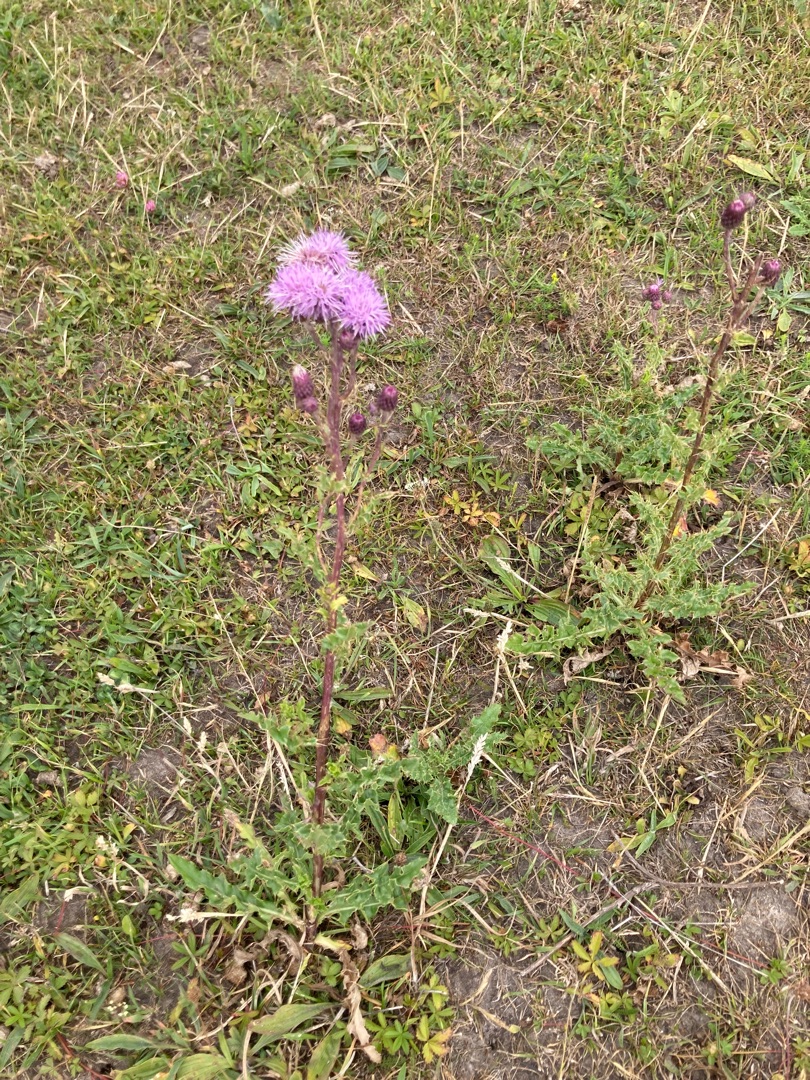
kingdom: Plantae
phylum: Tracheophyta
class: Magnoliopsida
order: Asterales
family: Asteraceae
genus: Cirsium
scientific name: Cirsium arvense
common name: Ager-tidsel
